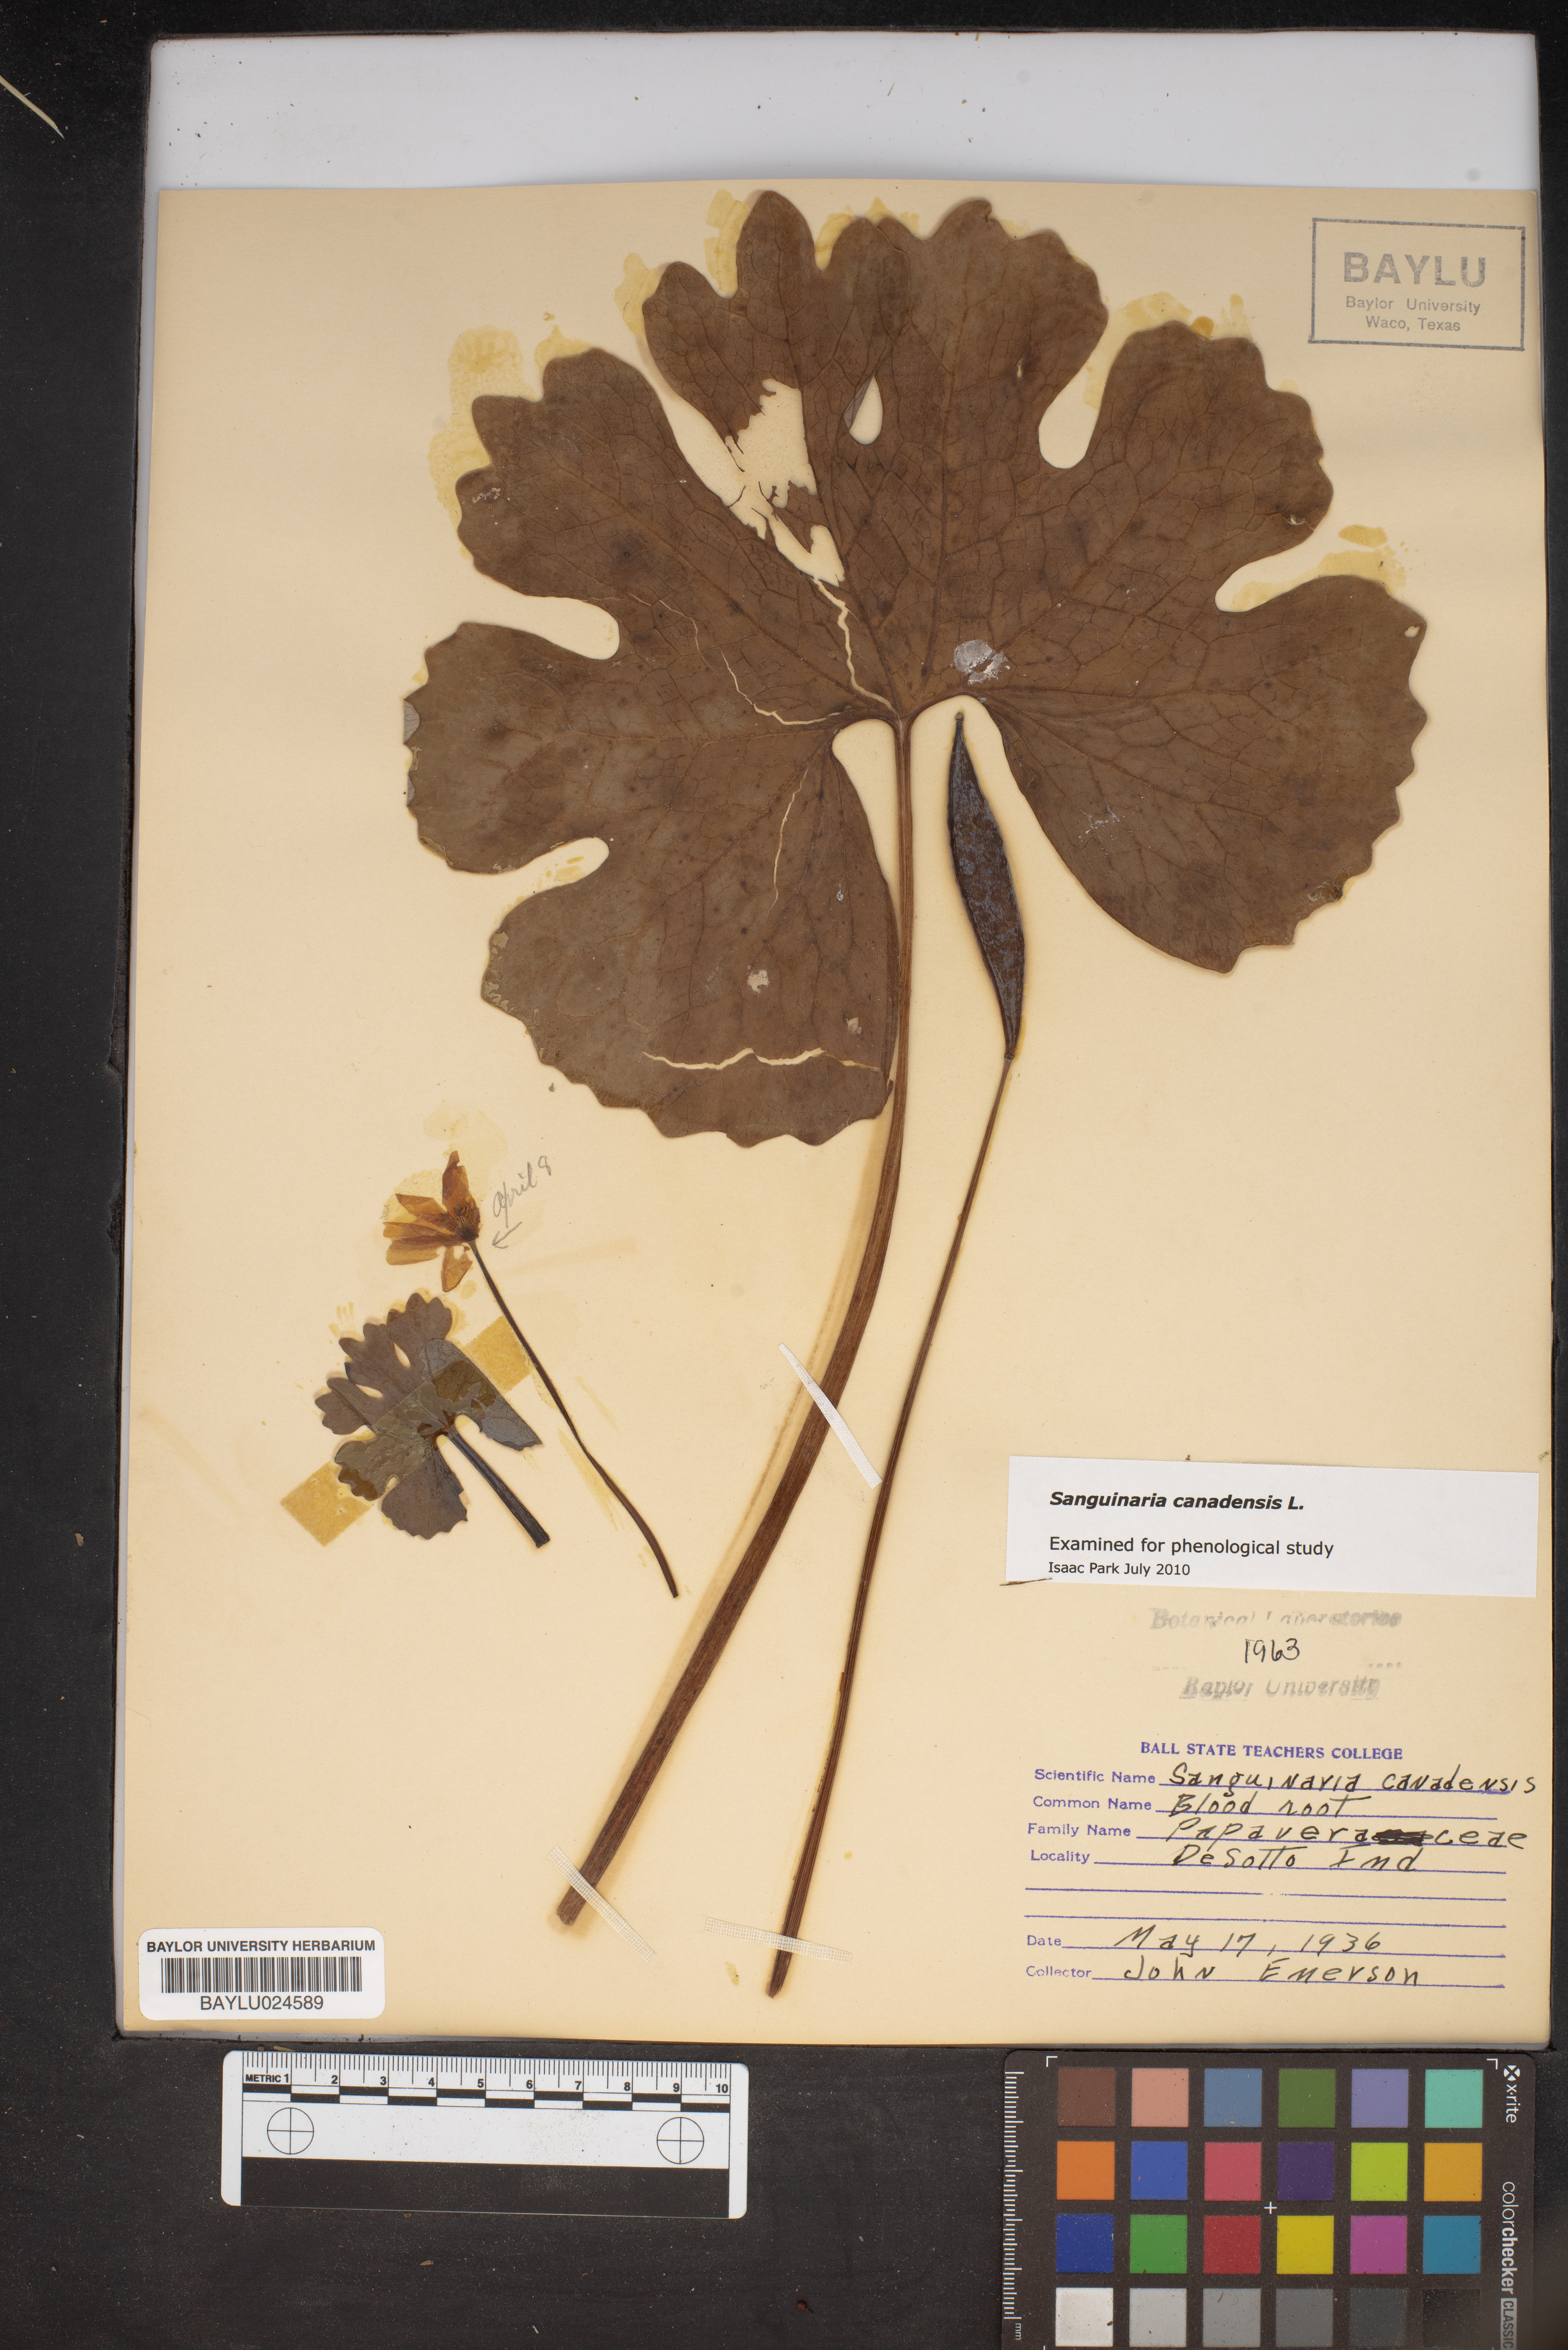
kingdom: Plantae
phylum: Tracheophyta
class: Magnoliopsida
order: Ranunculales
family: Papaveraceae
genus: Sanguinaria
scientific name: Sanguinaria canadensis
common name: Bloodroot
